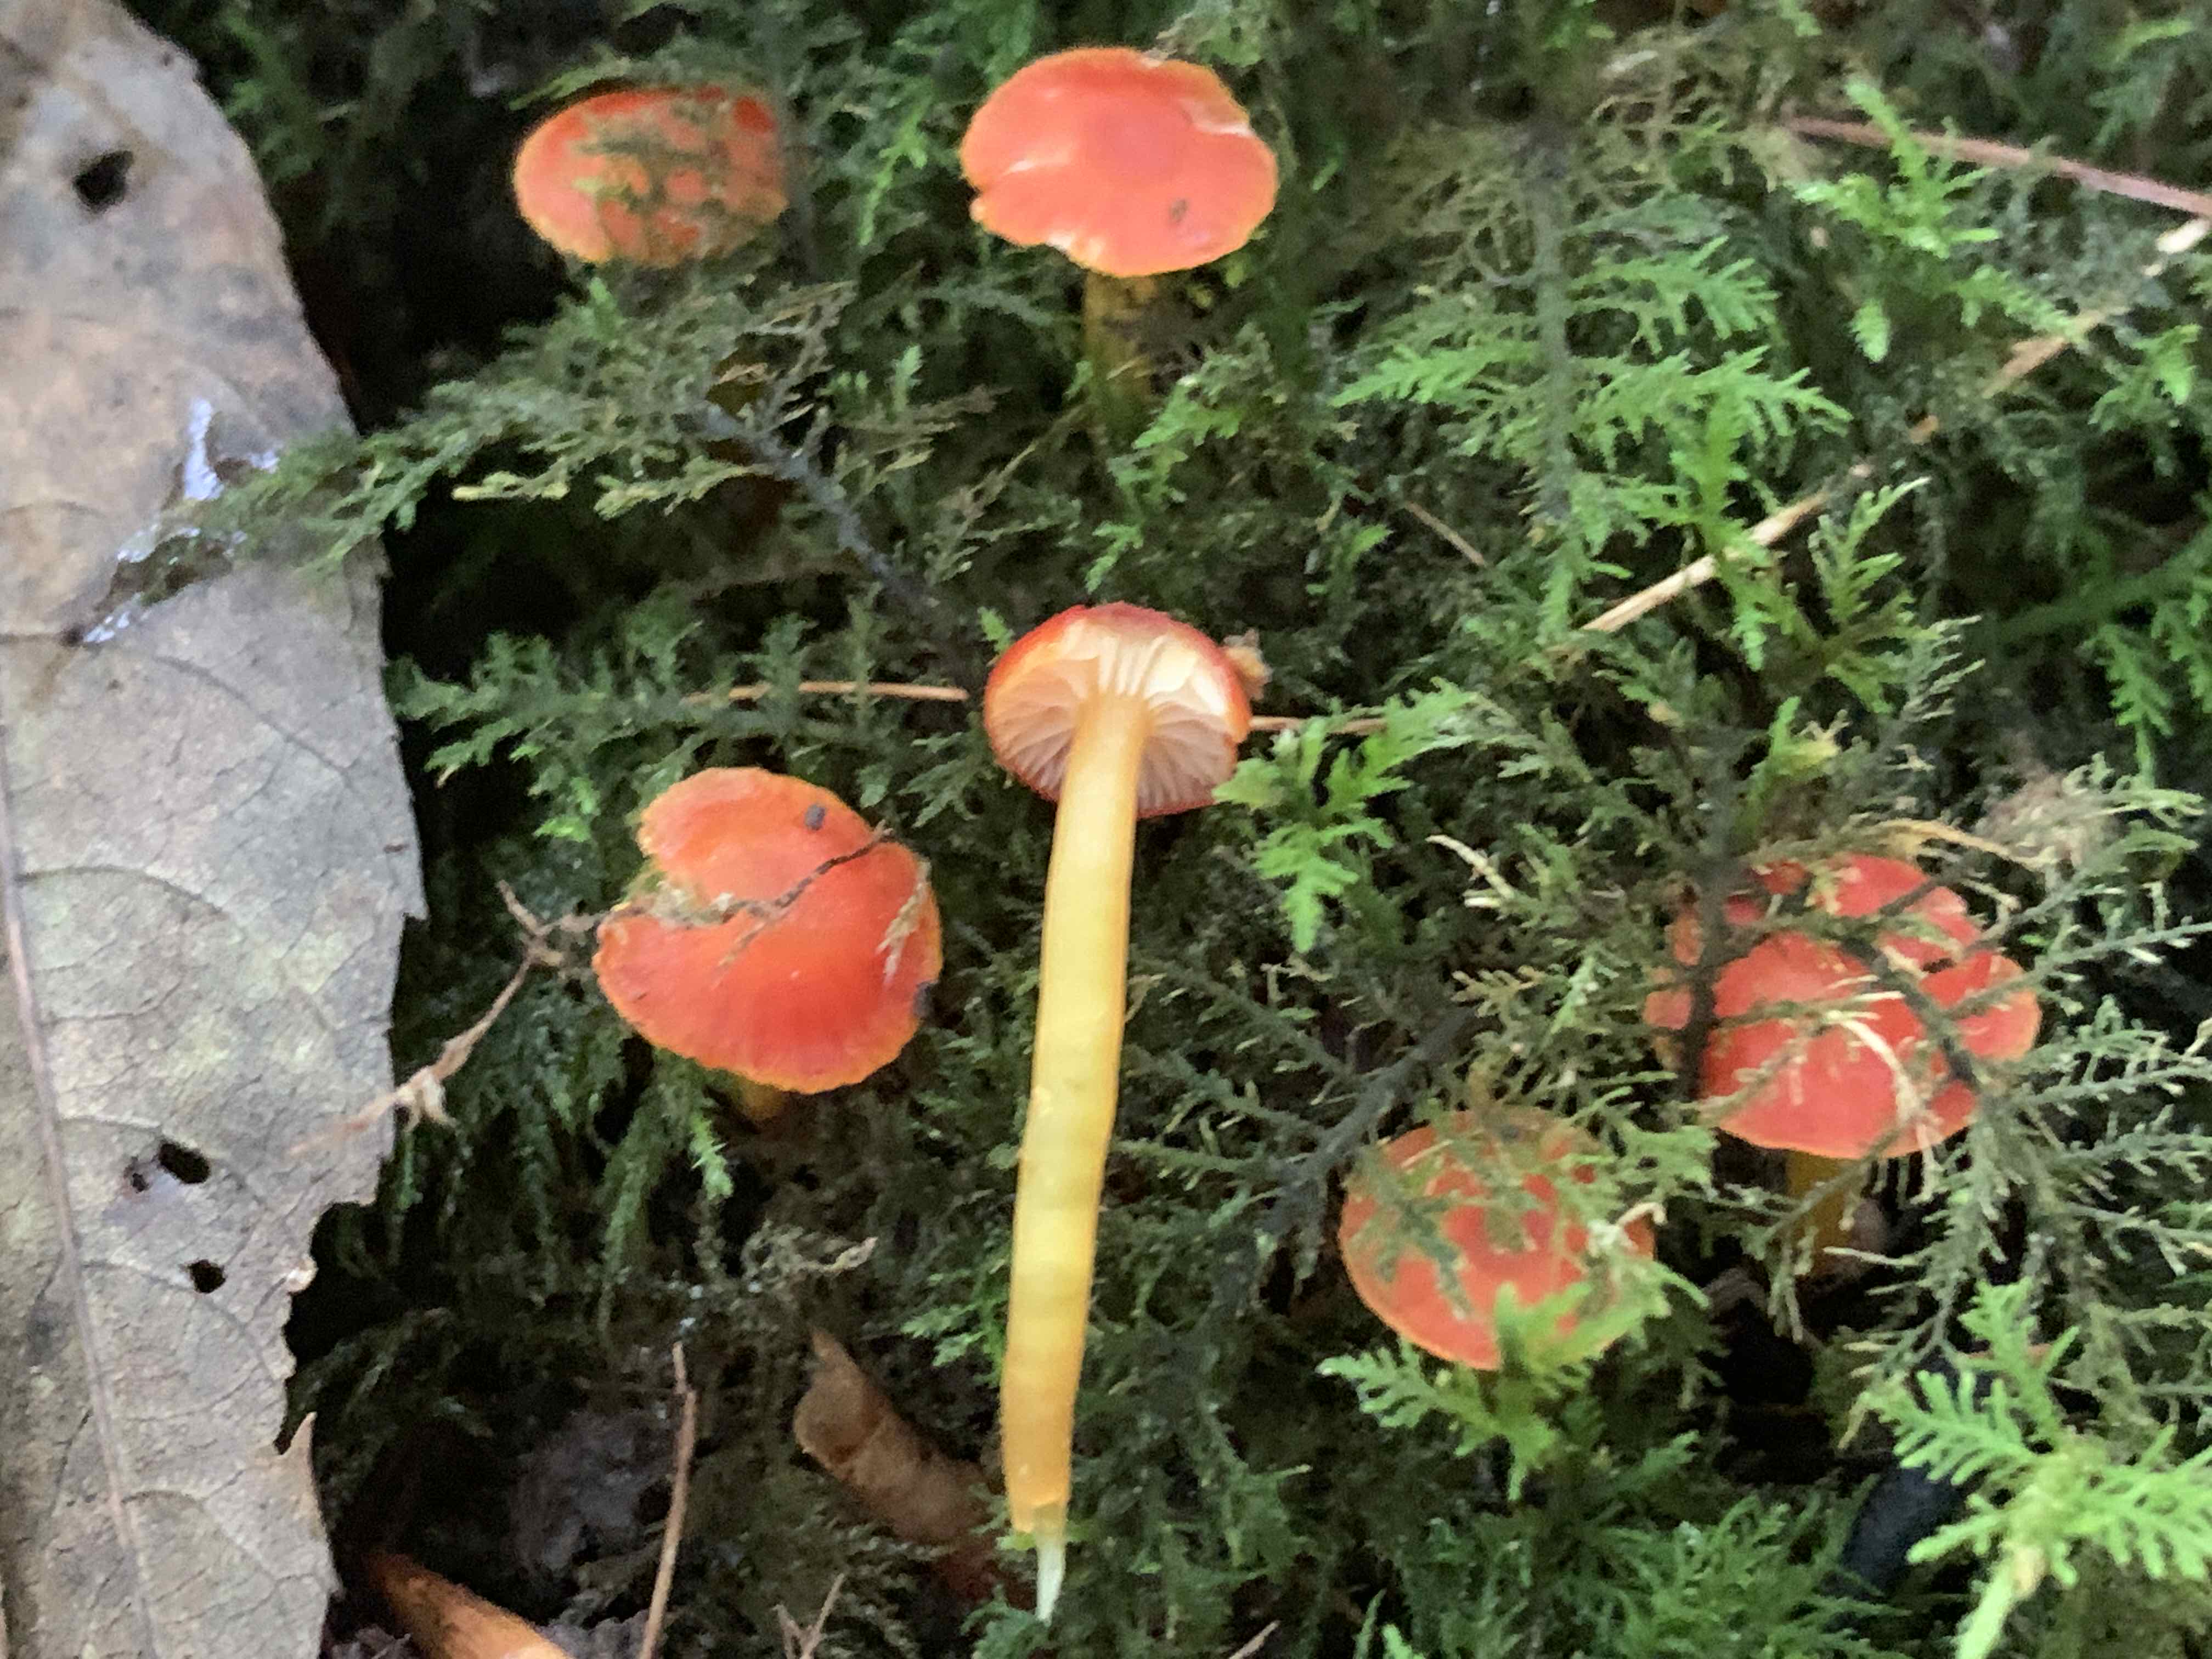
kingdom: Fungi
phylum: Basidiomycota
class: Agaricomycetes
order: Agaricales
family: Hygrophoraceae
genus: Hygrocybe
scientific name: Hygrocybe insipida
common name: liden vokshat
